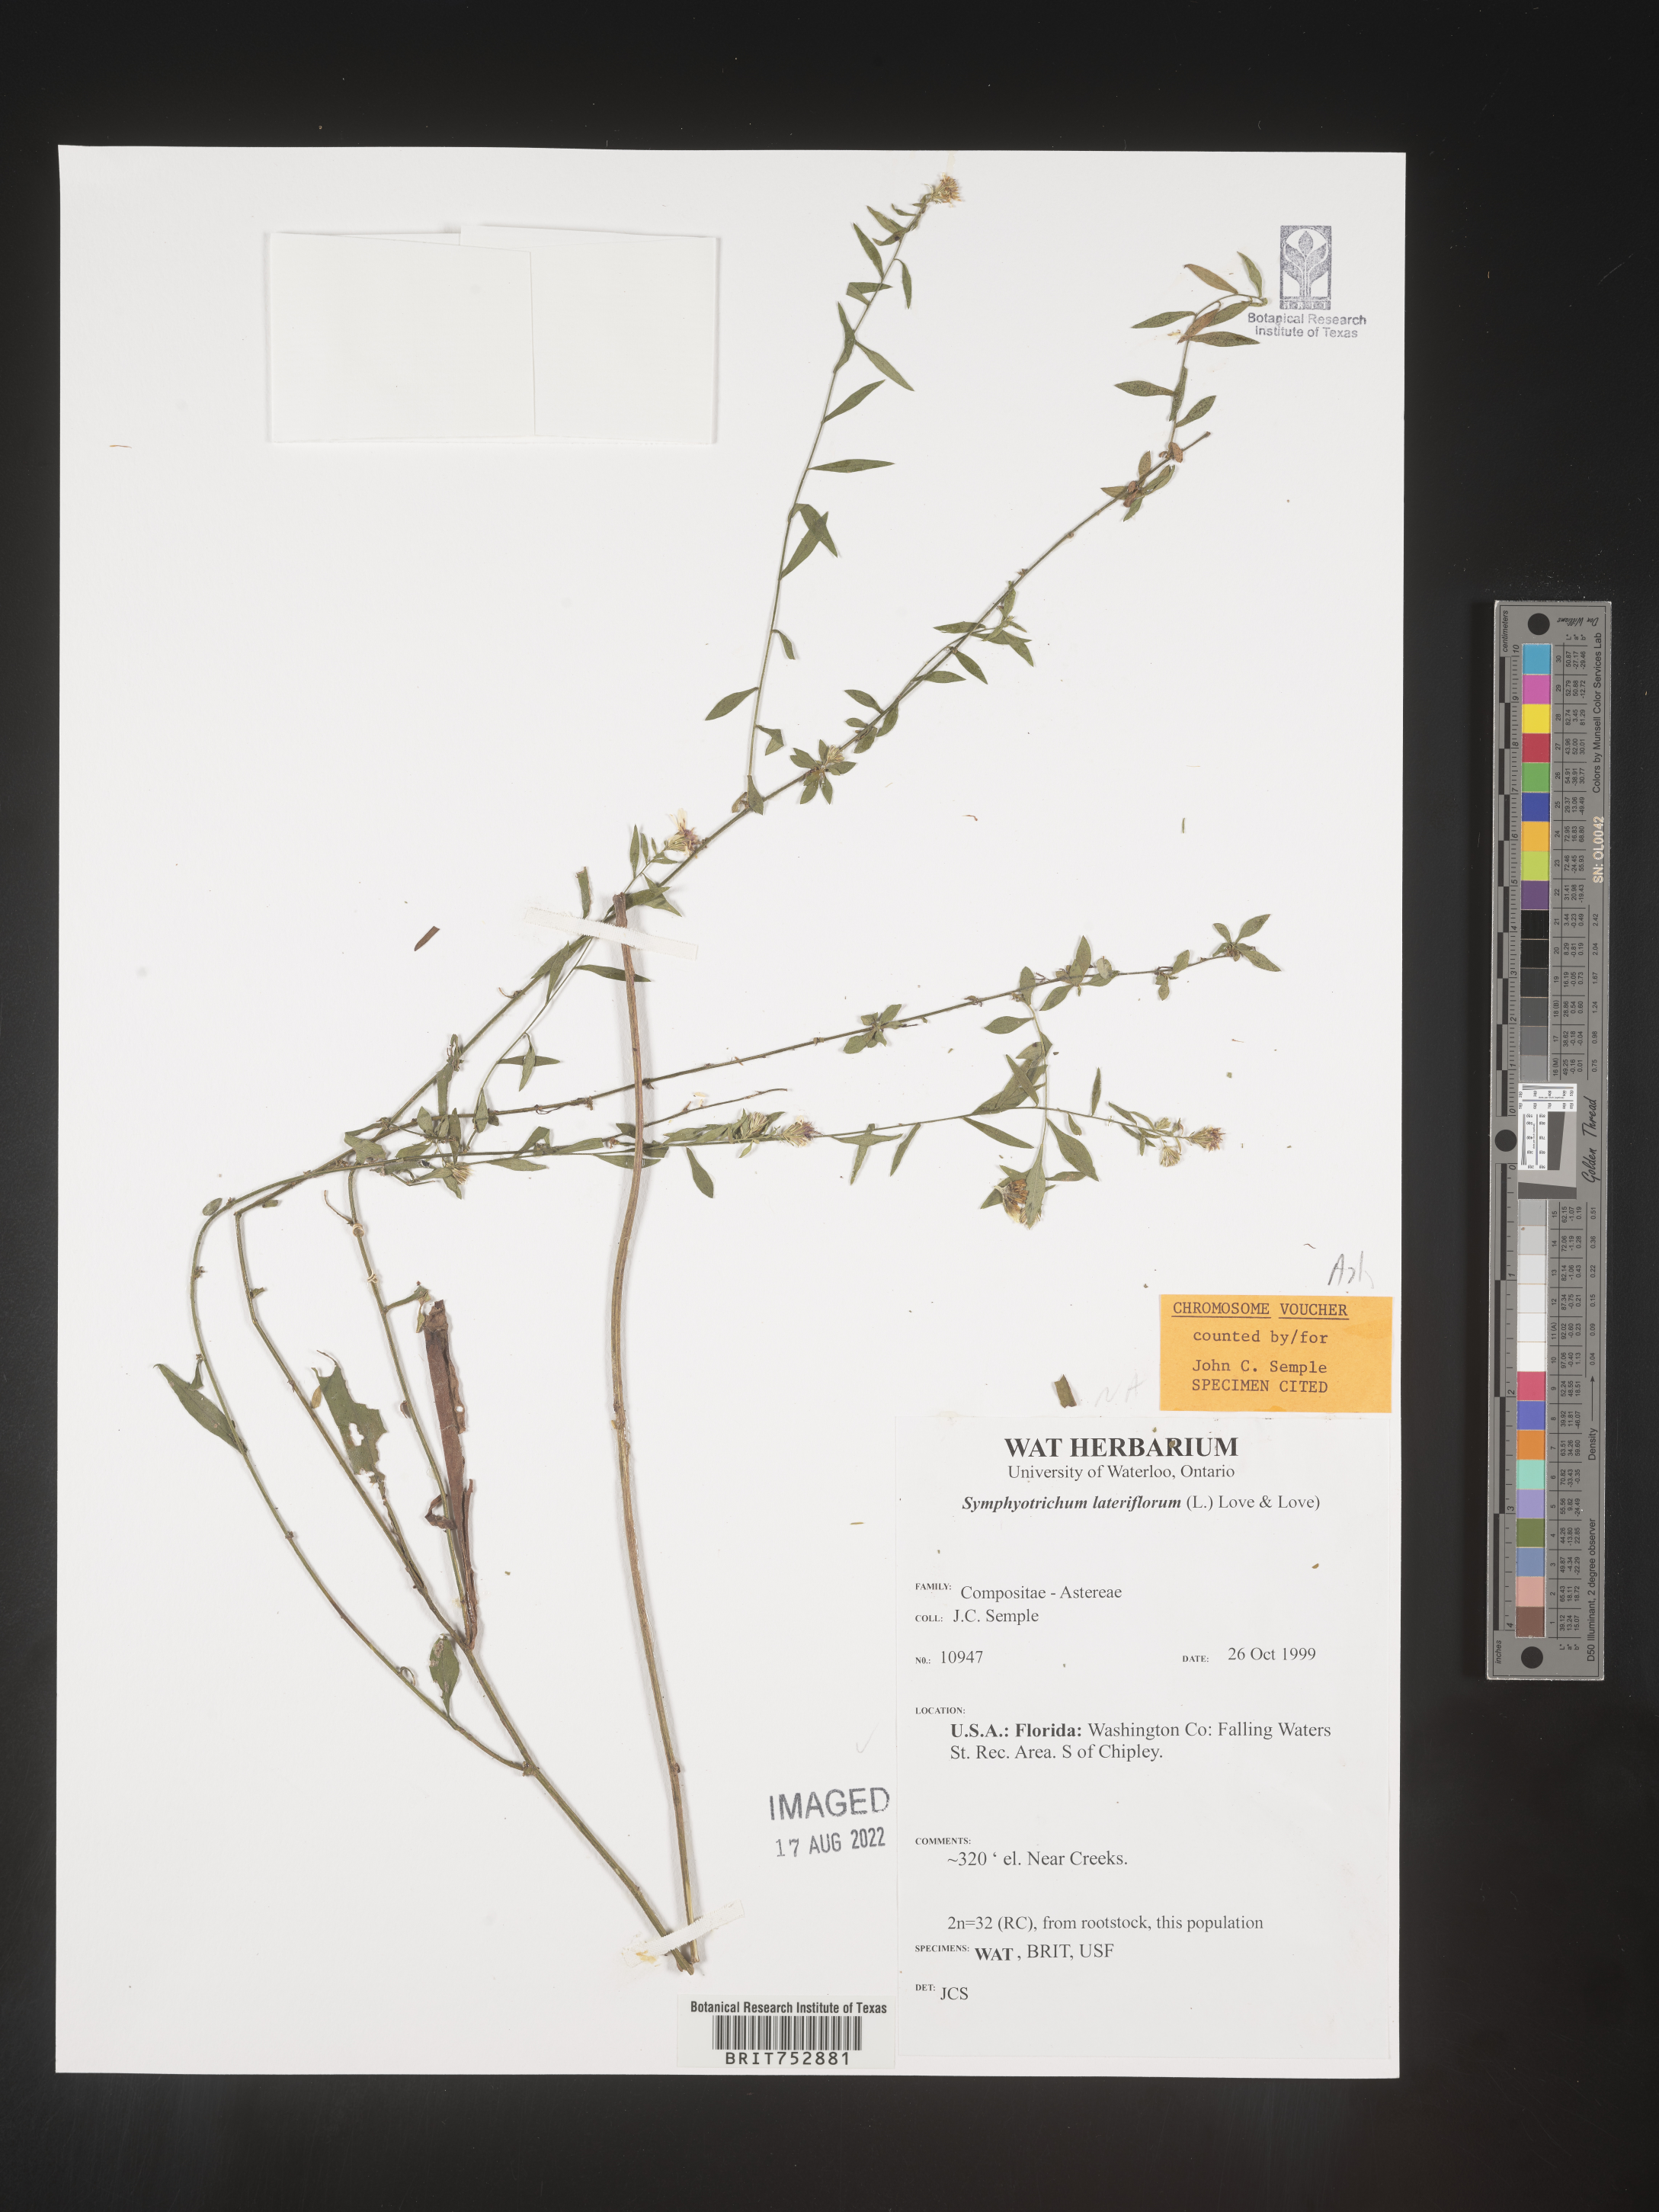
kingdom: Plantae
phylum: Tracheophyta
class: Magnoliopsida
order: Asterales
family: Asteraceae
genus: Symphyotrichum
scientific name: Symphyotrichum lateriflorum
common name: Calico aster
